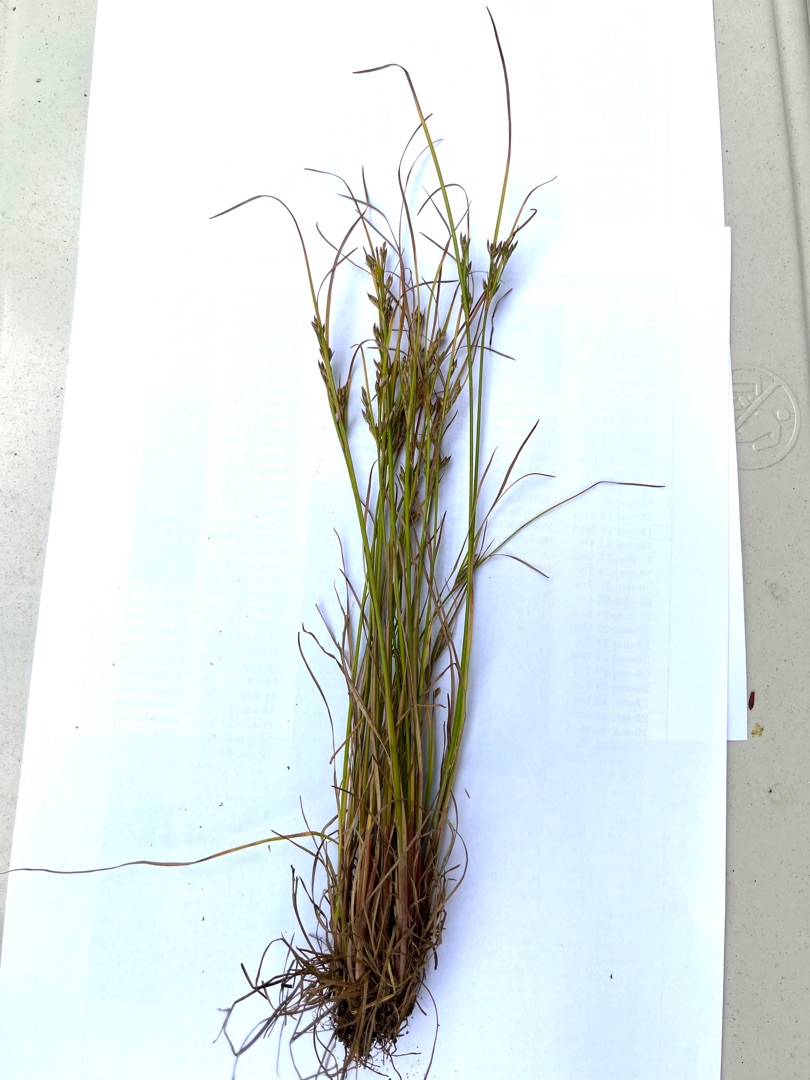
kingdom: Plantae
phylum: Tracheophyta
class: Liliopsida
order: Poales
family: Juncaceae
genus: Juncus
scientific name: Juncus tenuis
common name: Tue-siv
